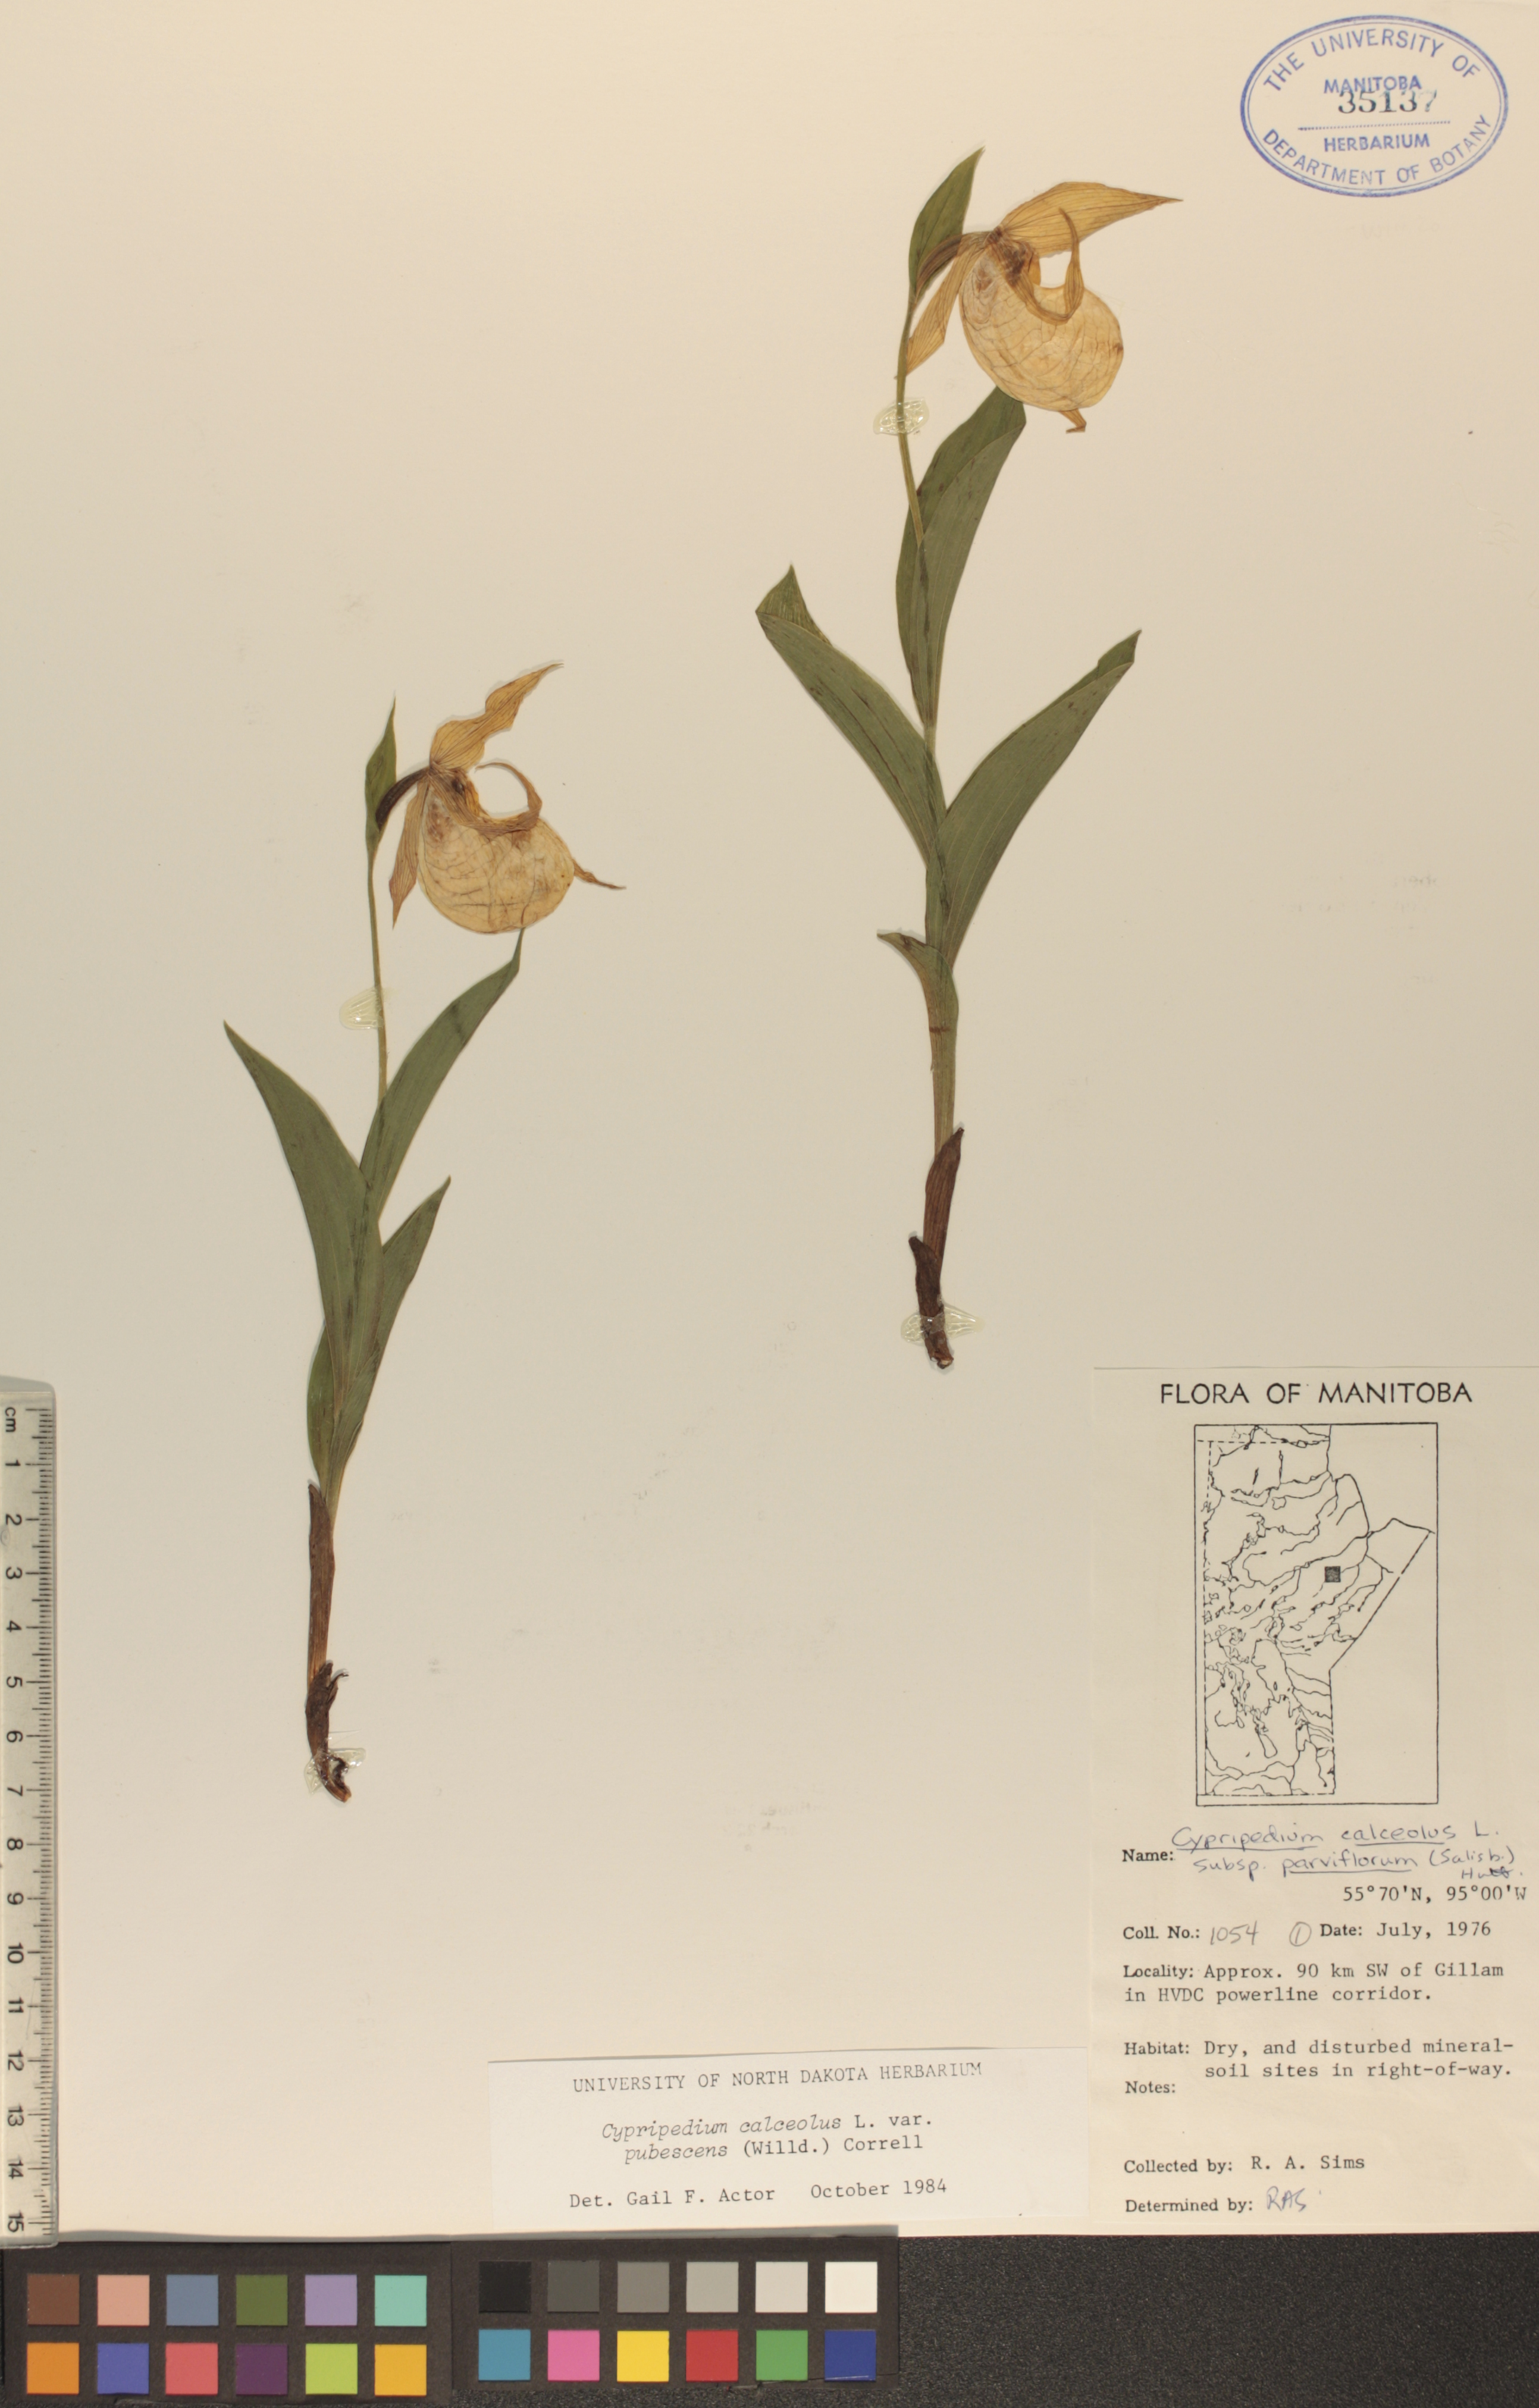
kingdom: Plantae
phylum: Tracheophyta
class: Liliopsida
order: Asparagales
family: Orchidaceae
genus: Cypripedium
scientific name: Cypripedium parviflorum
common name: American yellow lady's-slipper
